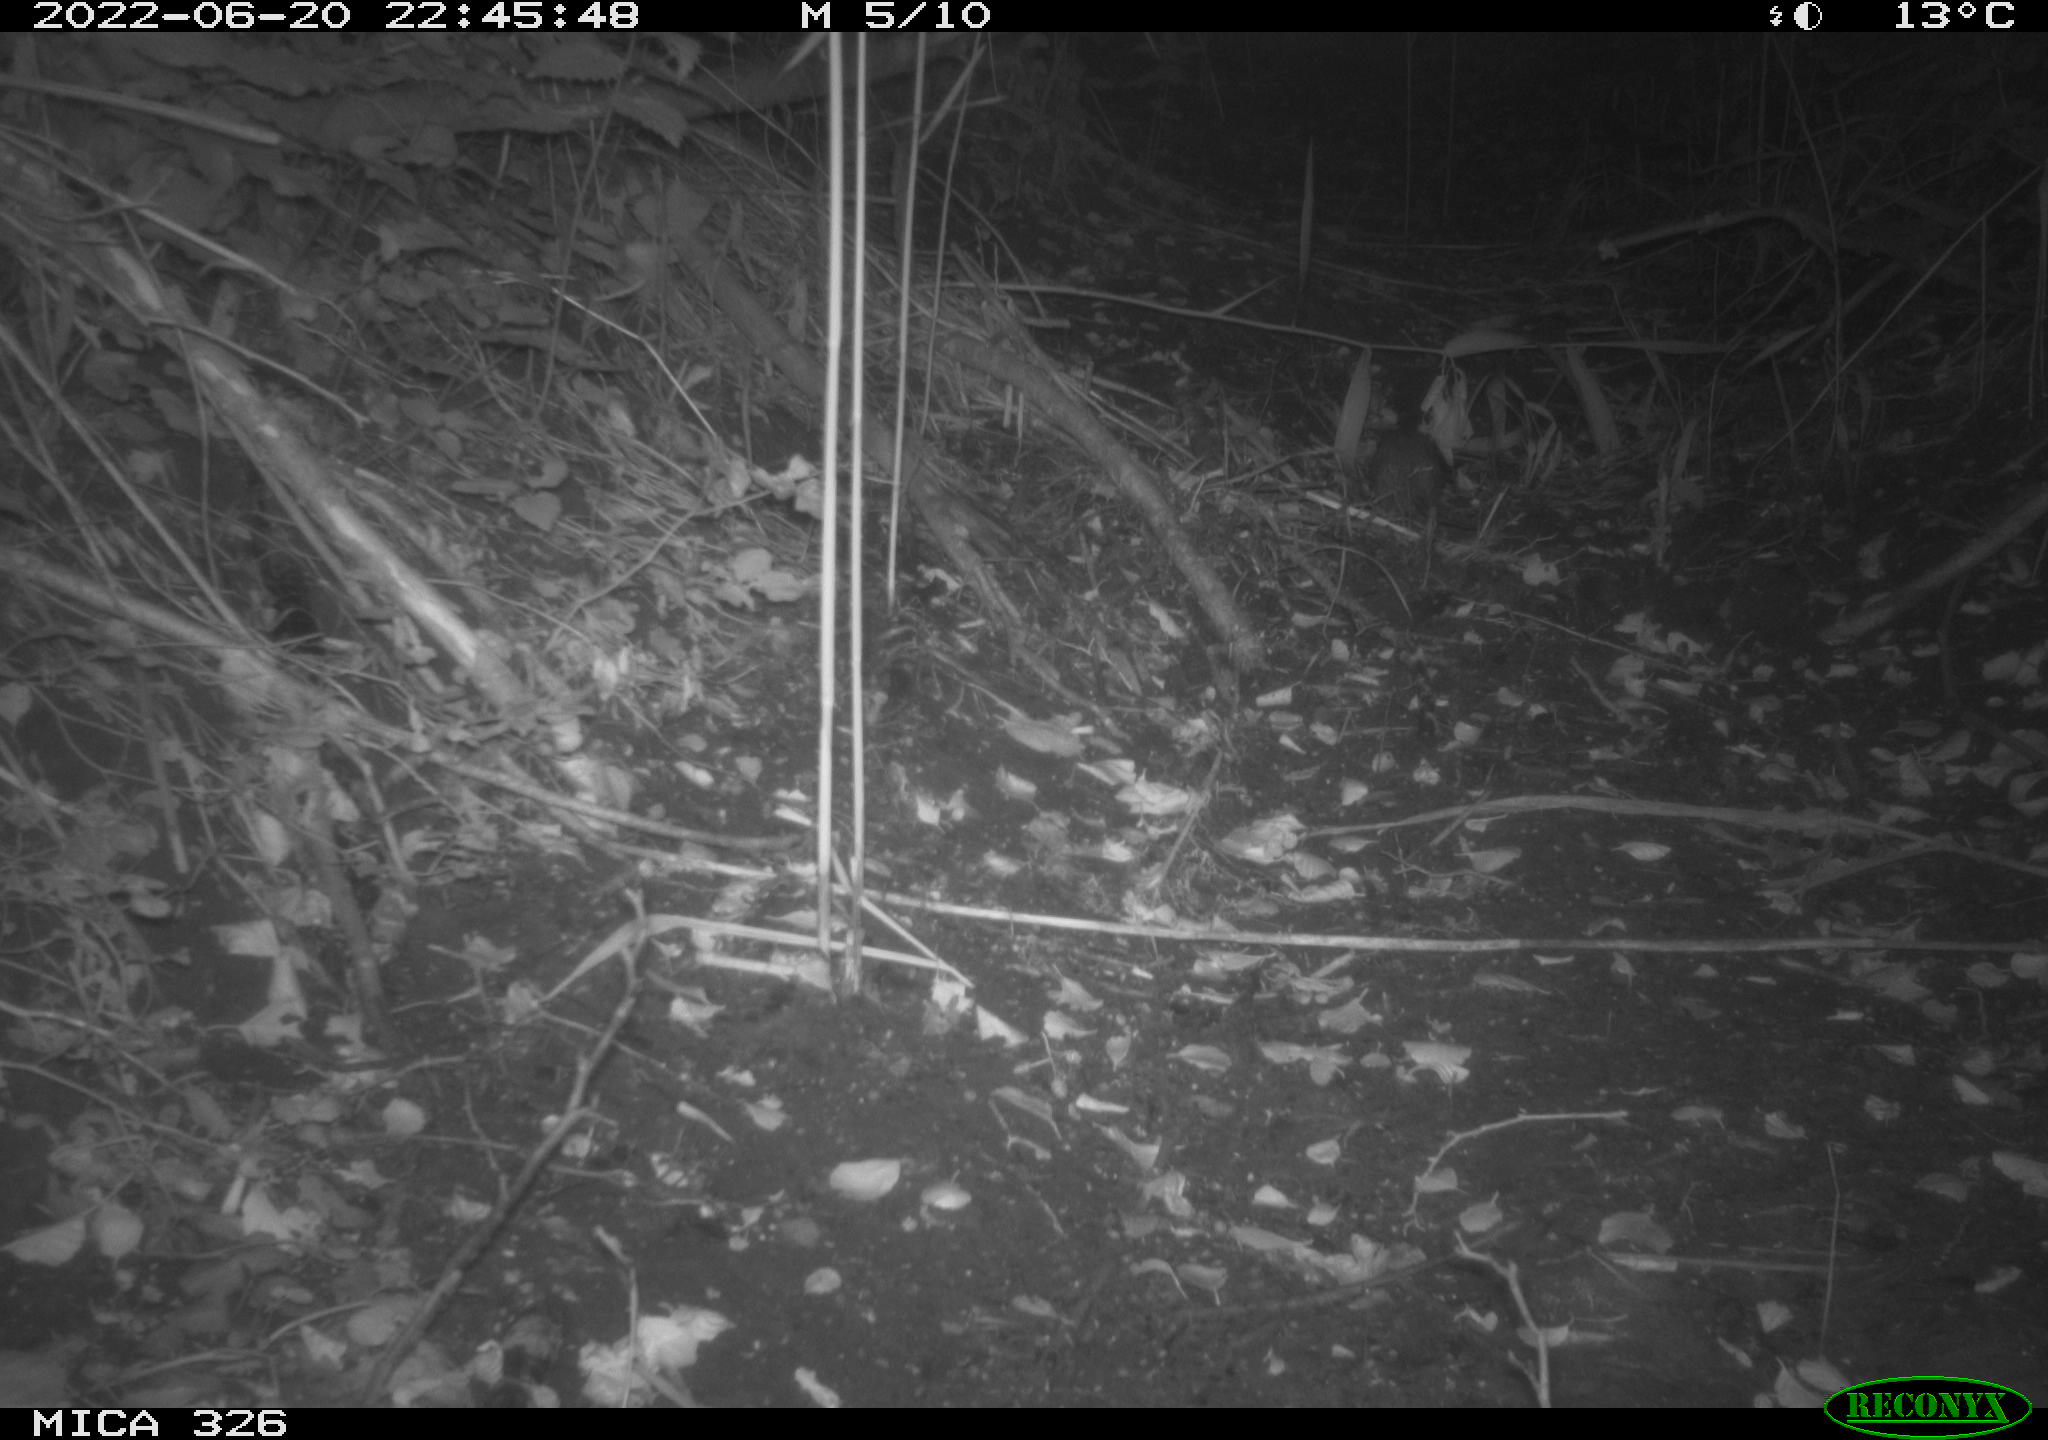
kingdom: Animalia
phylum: Chordata
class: Mammalia
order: Rodentia
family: Muridae
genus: Rattus
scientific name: Rattus norvegicus
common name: Brown rat
